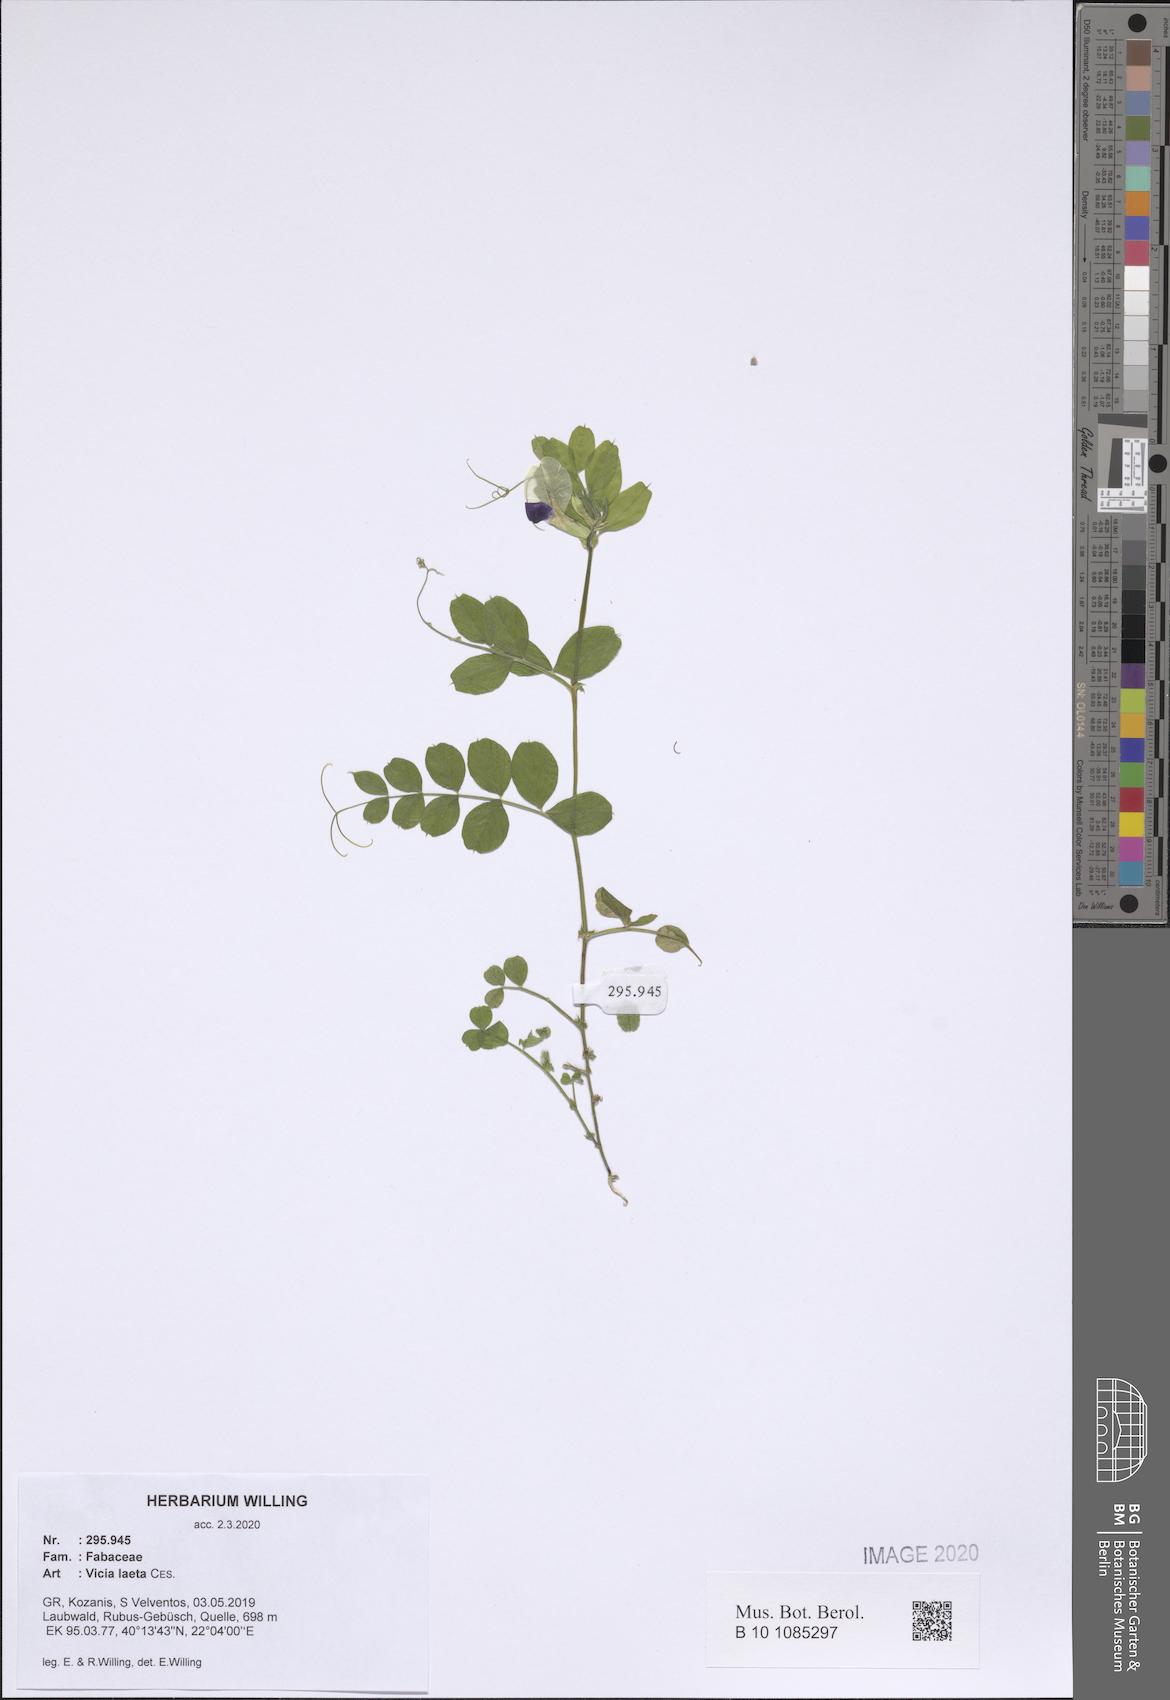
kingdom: Plantae
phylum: Tracheophyta
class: Magnoliopsida
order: Fabales
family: Fabaceae
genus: Vicia
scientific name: Vicia laeta
